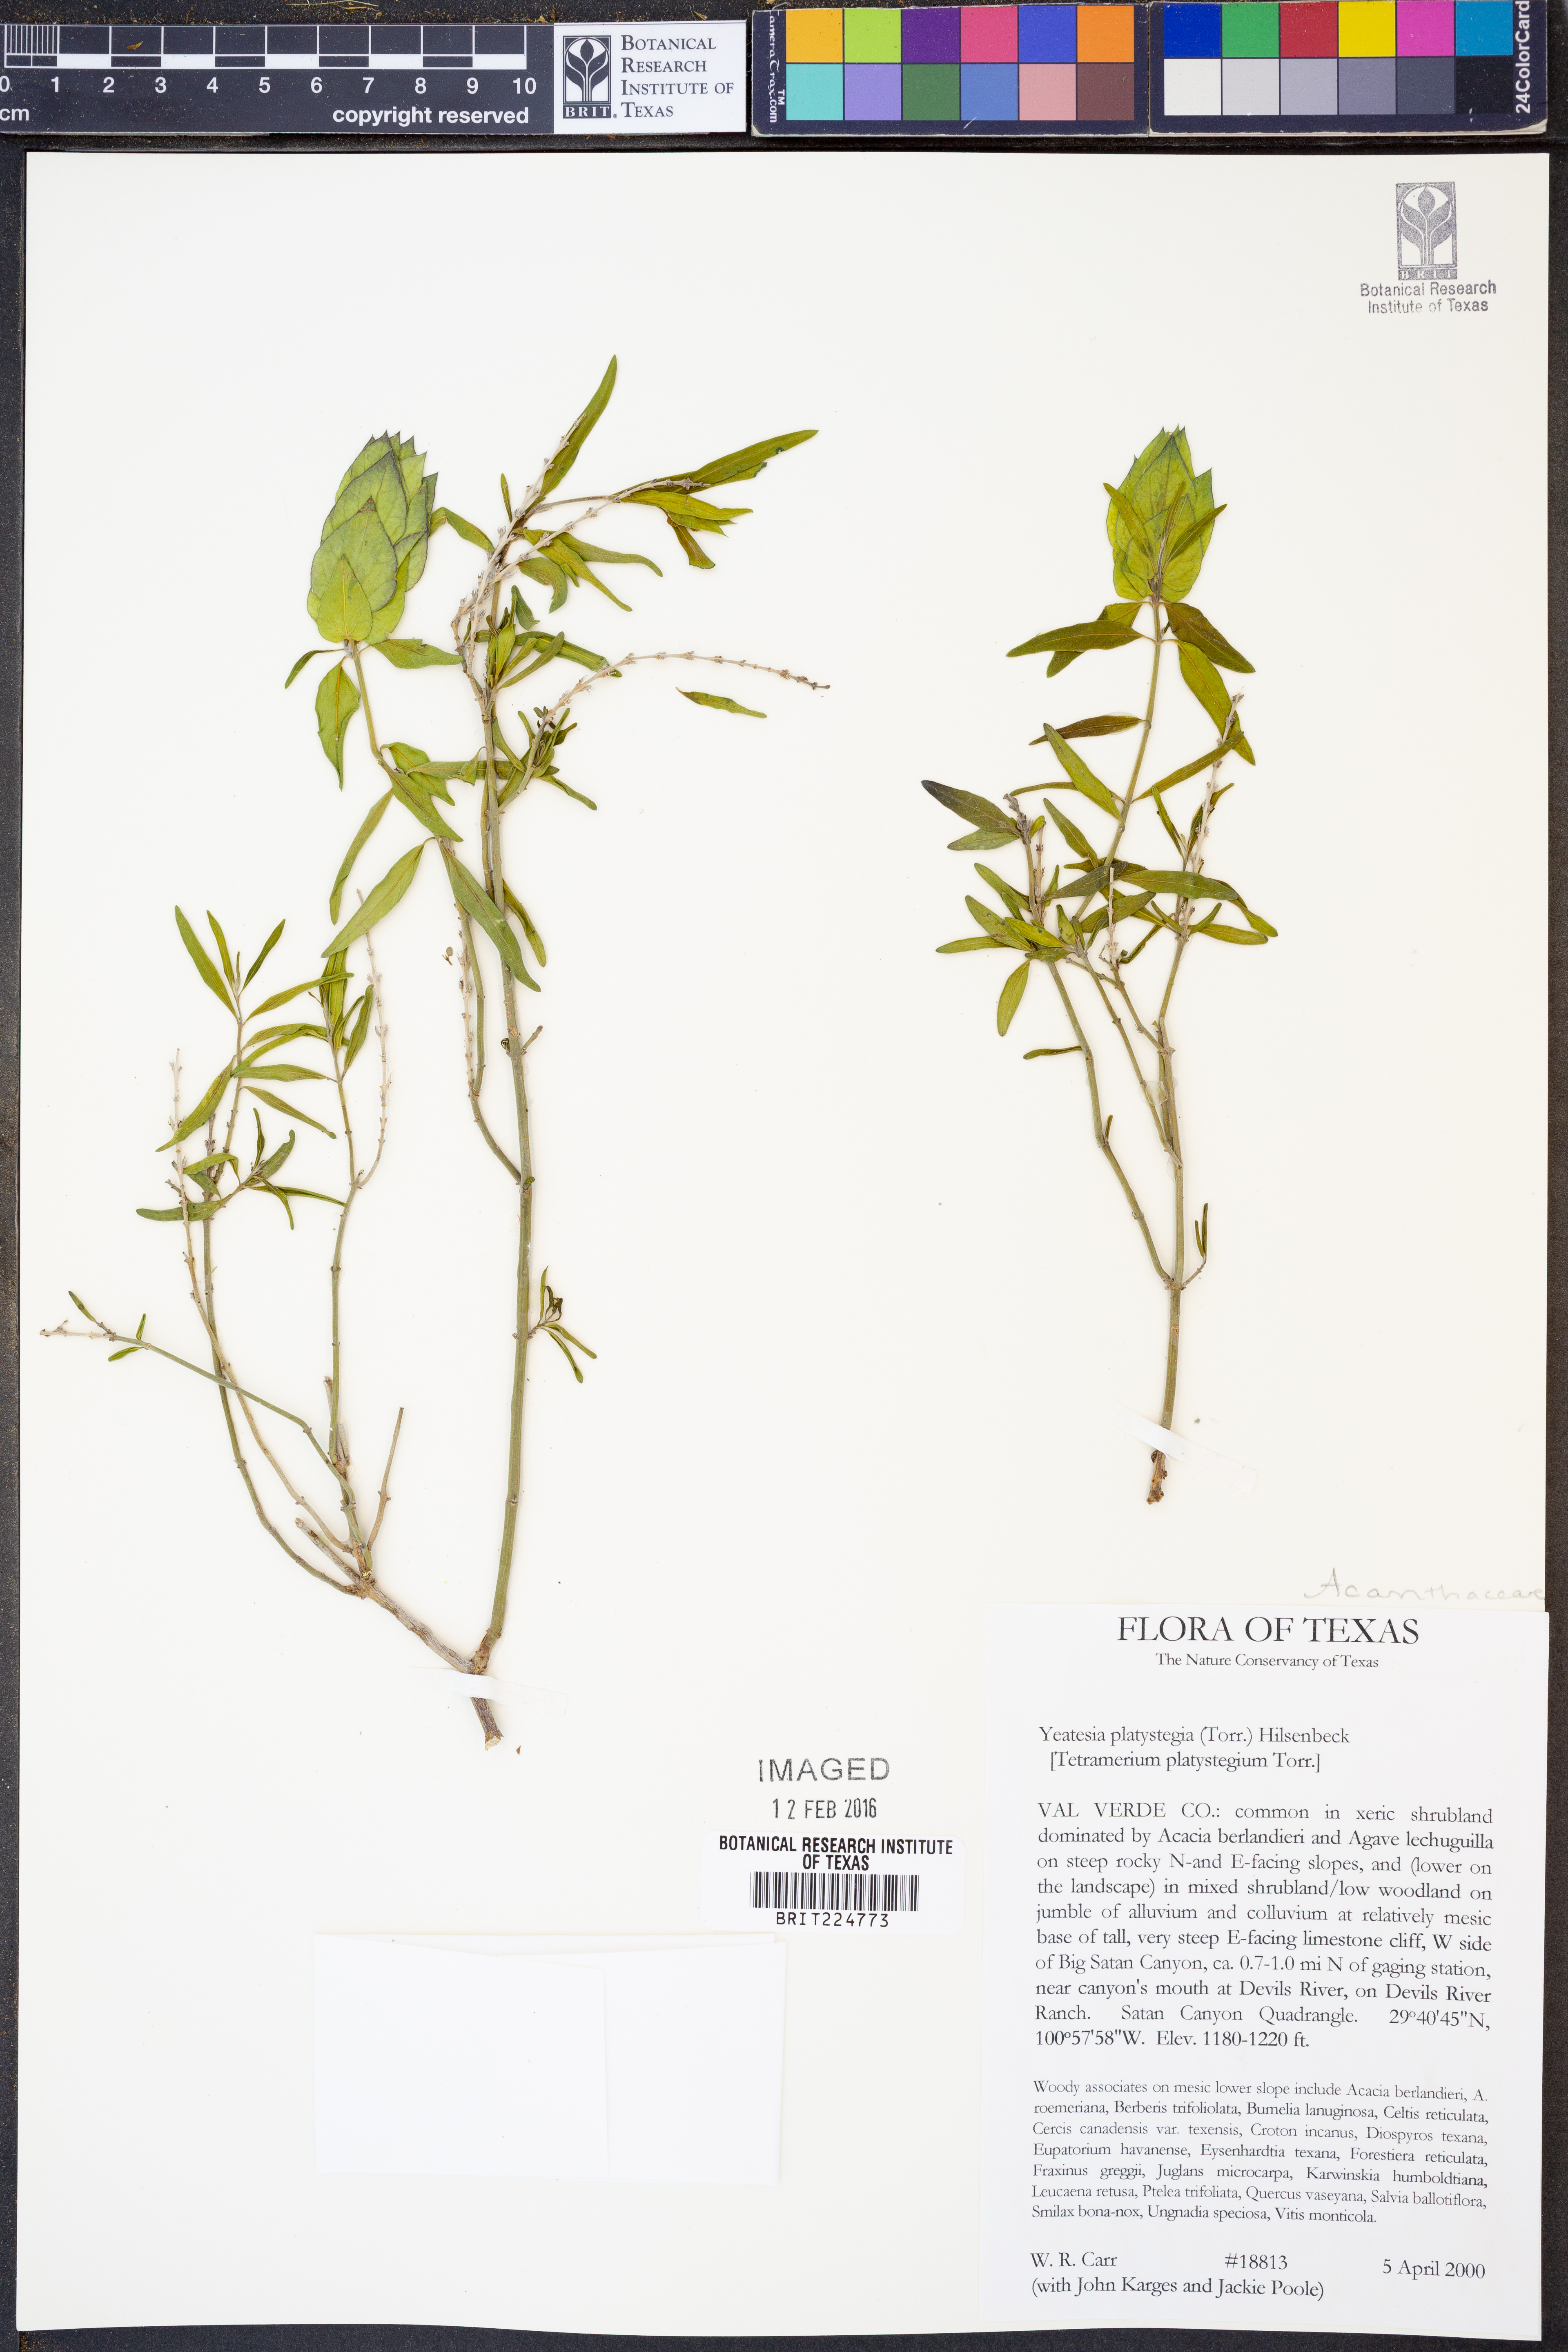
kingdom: Plantae
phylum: Tracheophyta
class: Magnoliopsida
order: Lamiales
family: Acanthaceae
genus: Yeatesia
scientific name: Yeatesia platystegia
